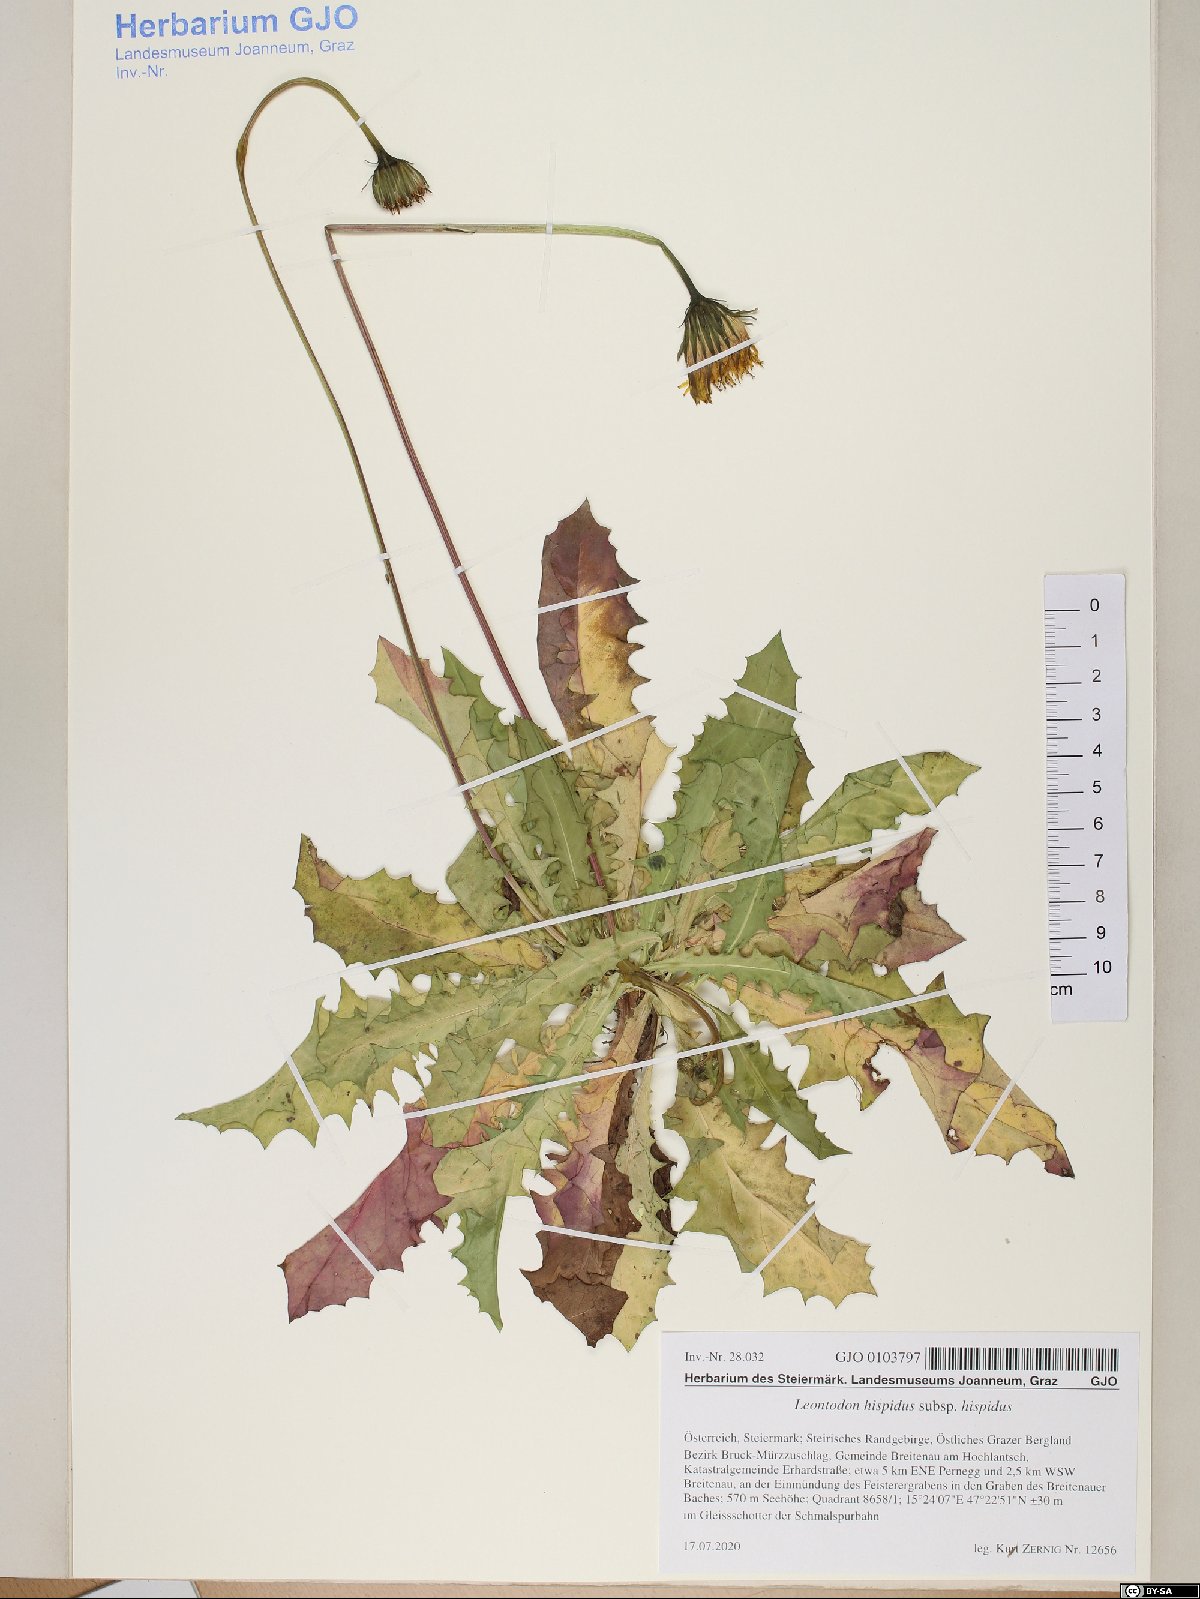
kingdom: Plantae
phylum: Tracheophyta
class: Magnoliopsida
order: Asterales
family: Asteraceae
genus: Leontodon
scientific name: Leontodon hispidus
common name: Rough hawkbit
